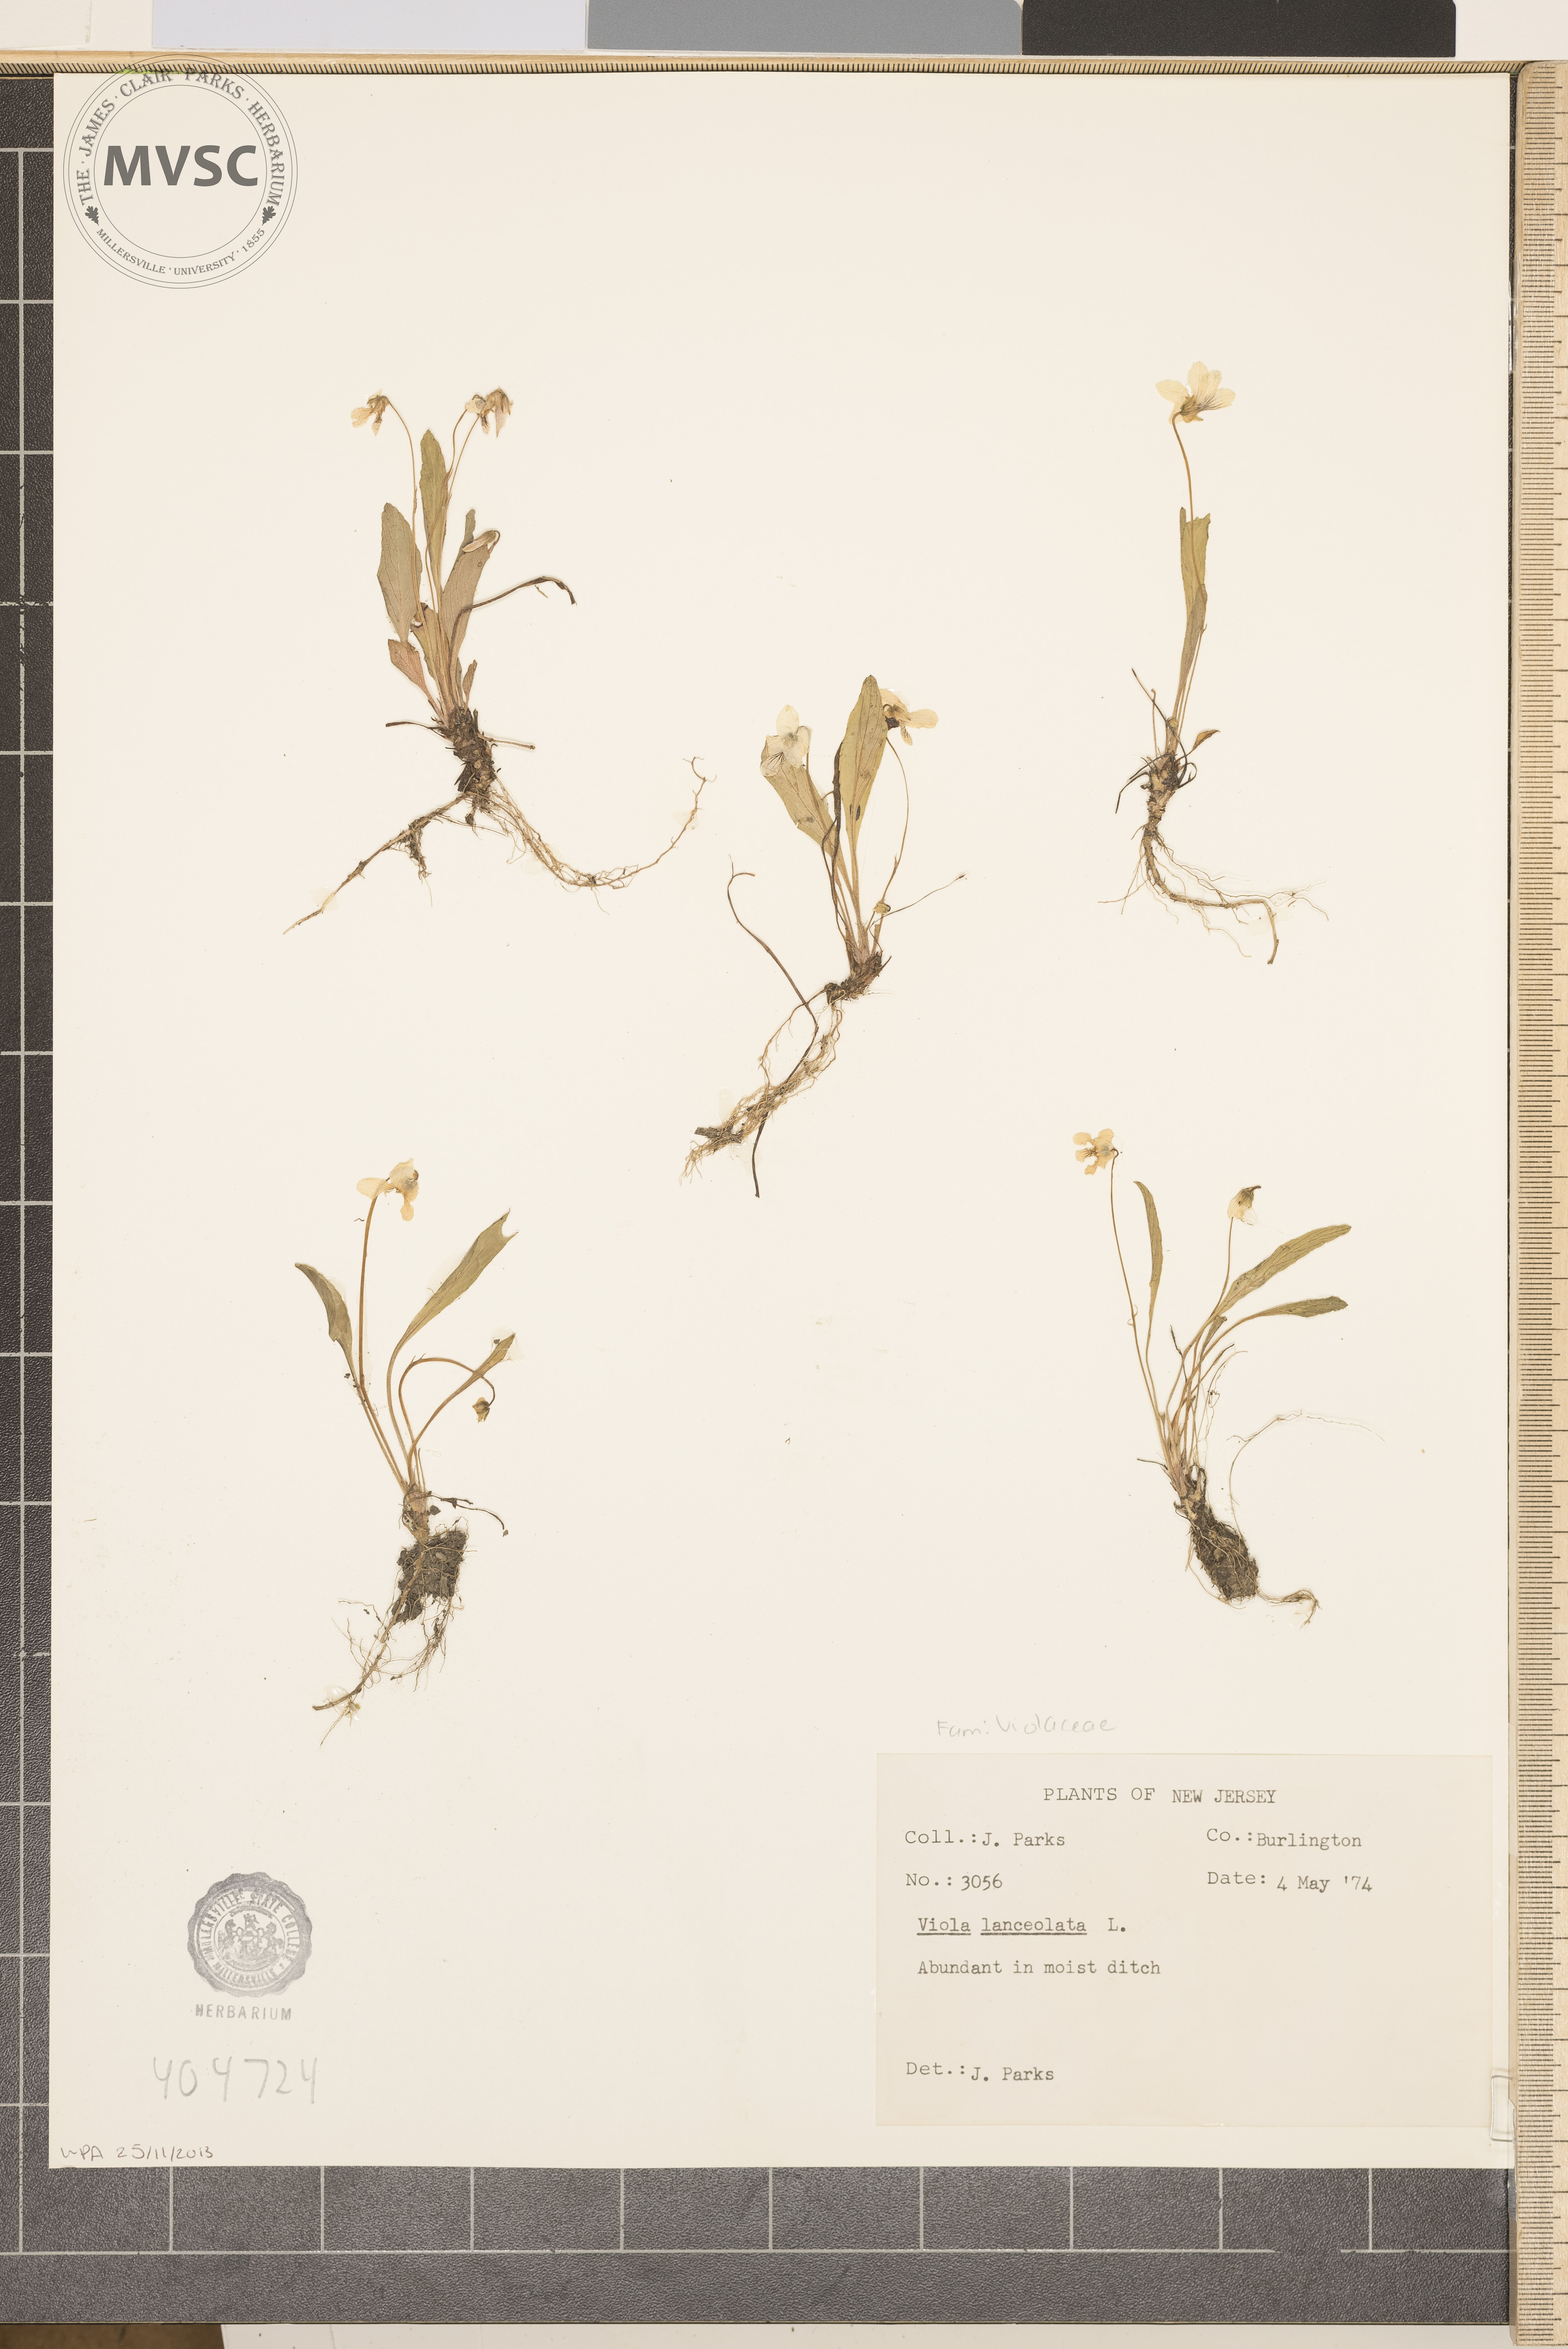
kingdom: Plantae
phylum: Tracheophyta
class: Magnoliopsida
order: Malpighiales
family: Violaceae
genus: Viola
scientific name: Viola lanceolata
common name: Bog white violet
